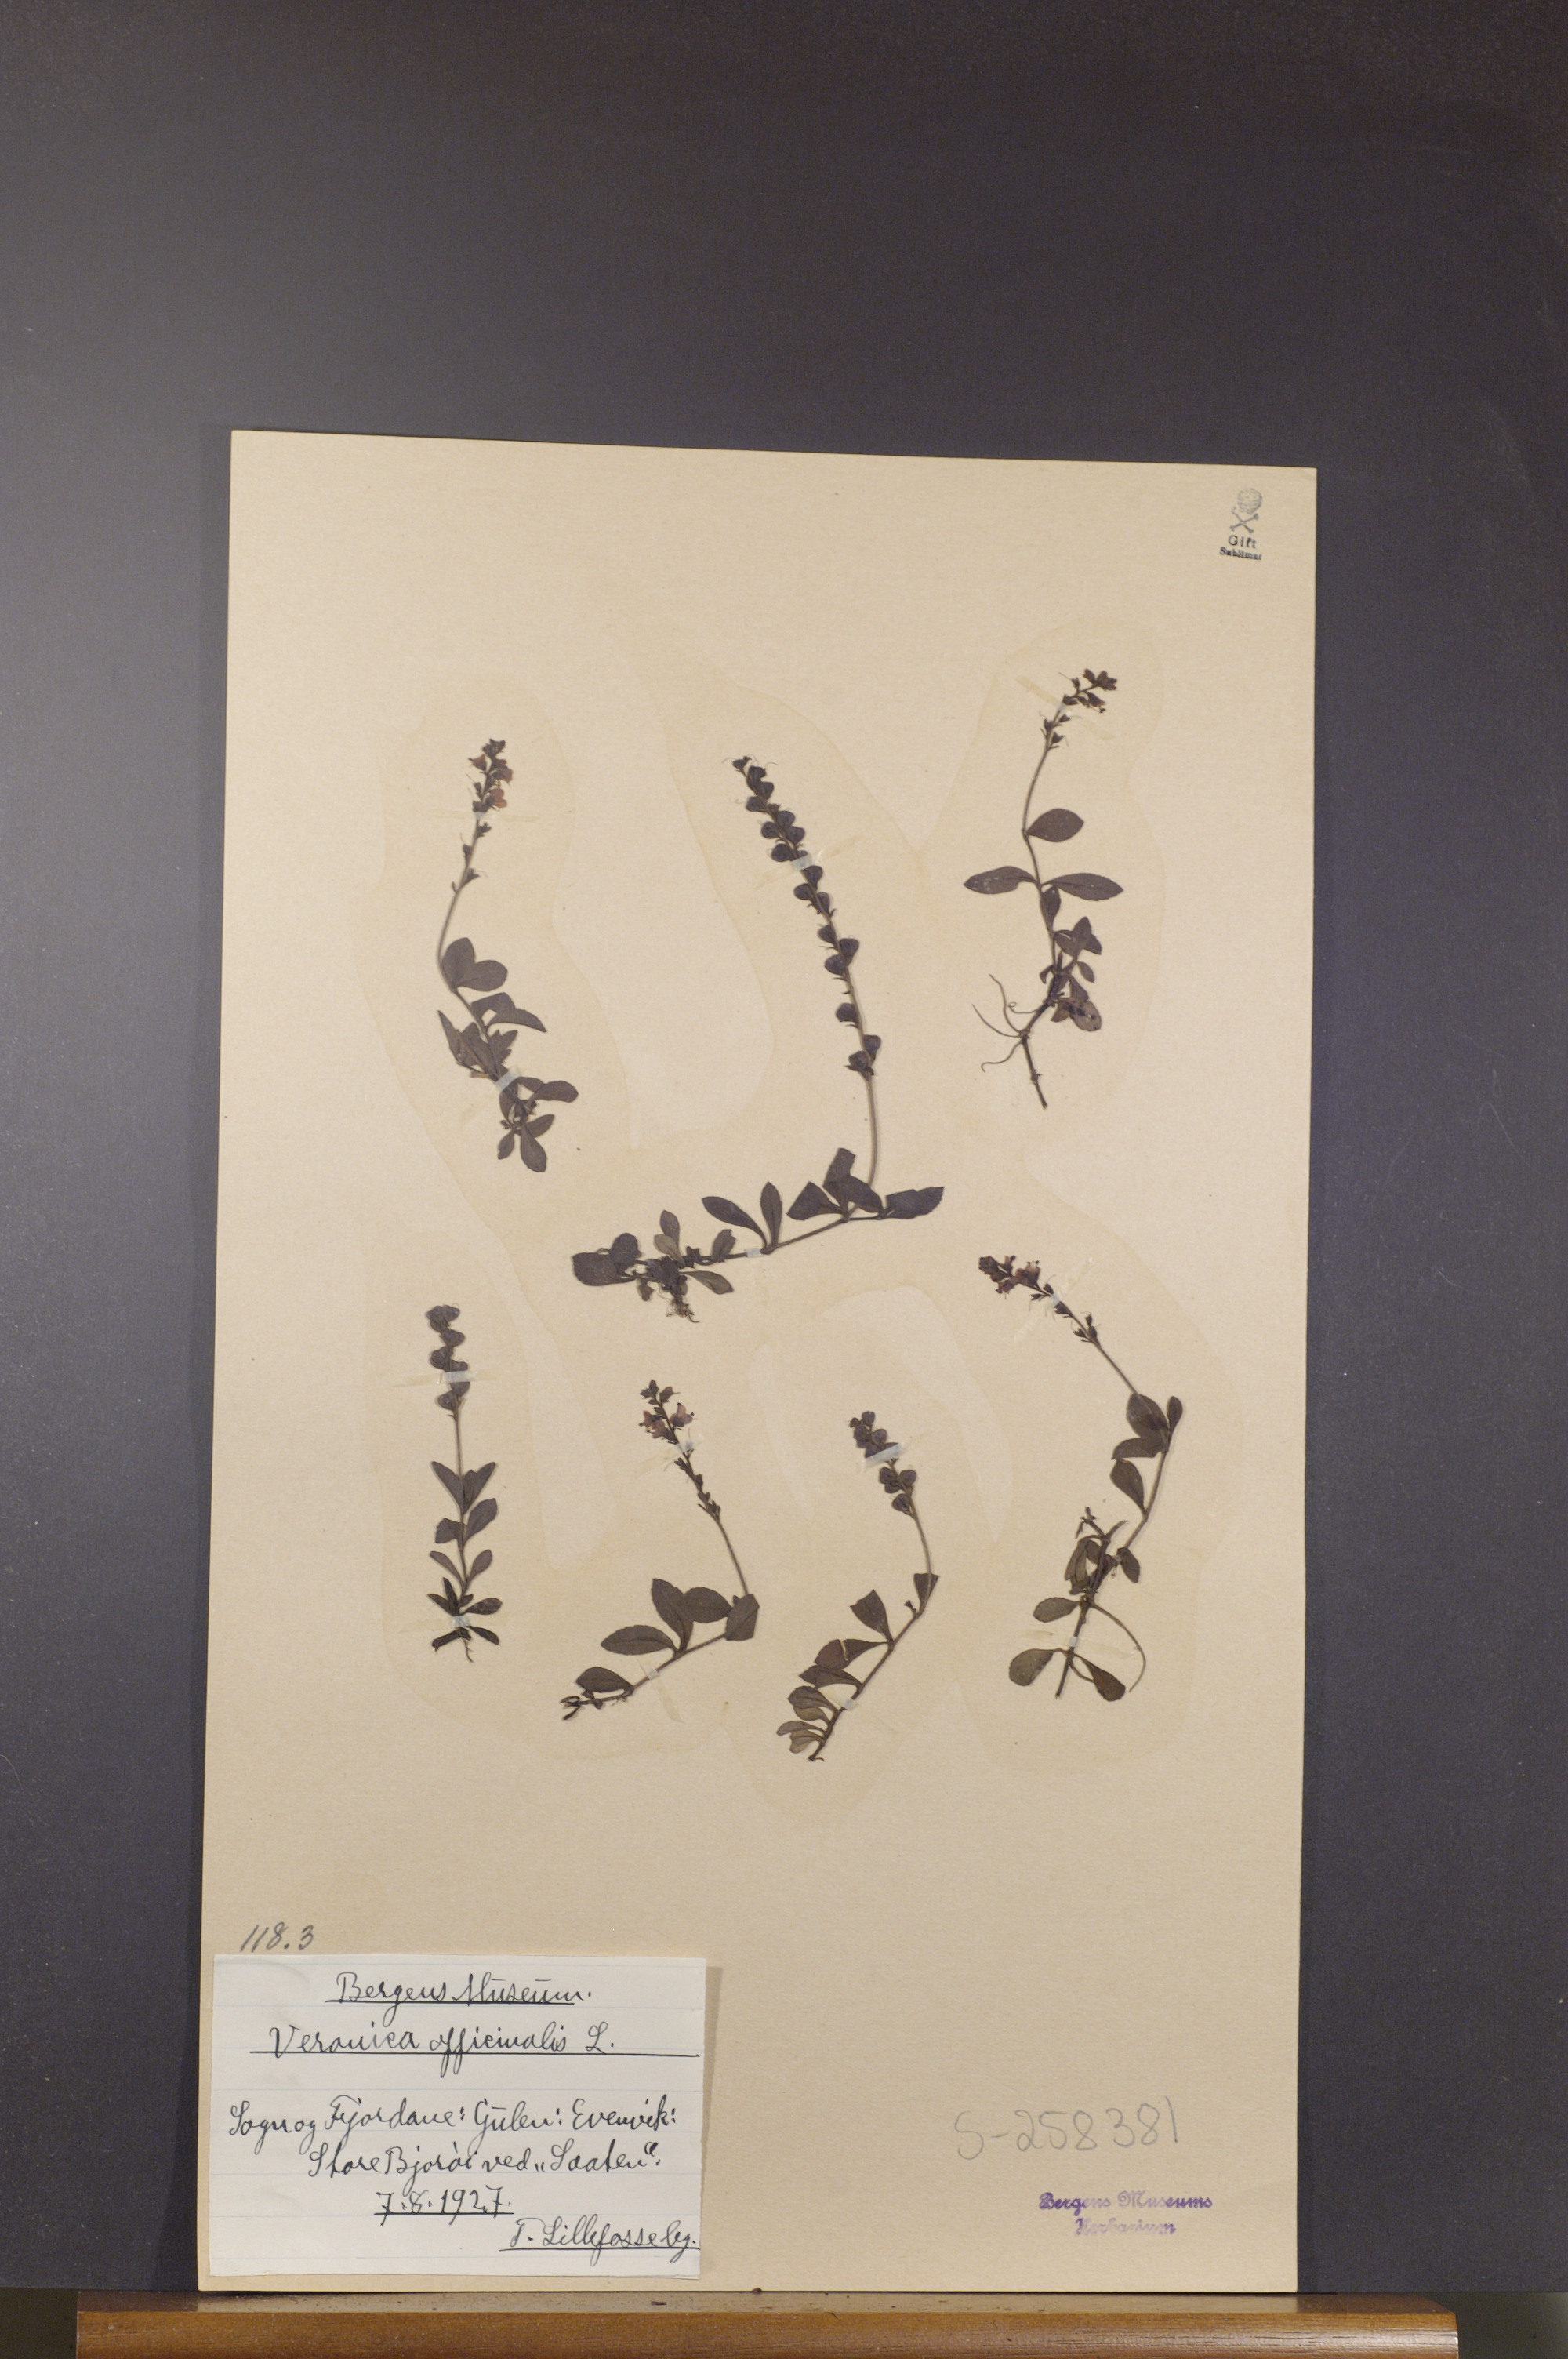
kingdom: Plantae
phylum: Tracheophyta
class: Magnoliopsida
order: Lamiales
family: Plantaginaceae
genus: Veronica
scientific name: Veronica officinalis
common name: Common speedwell
